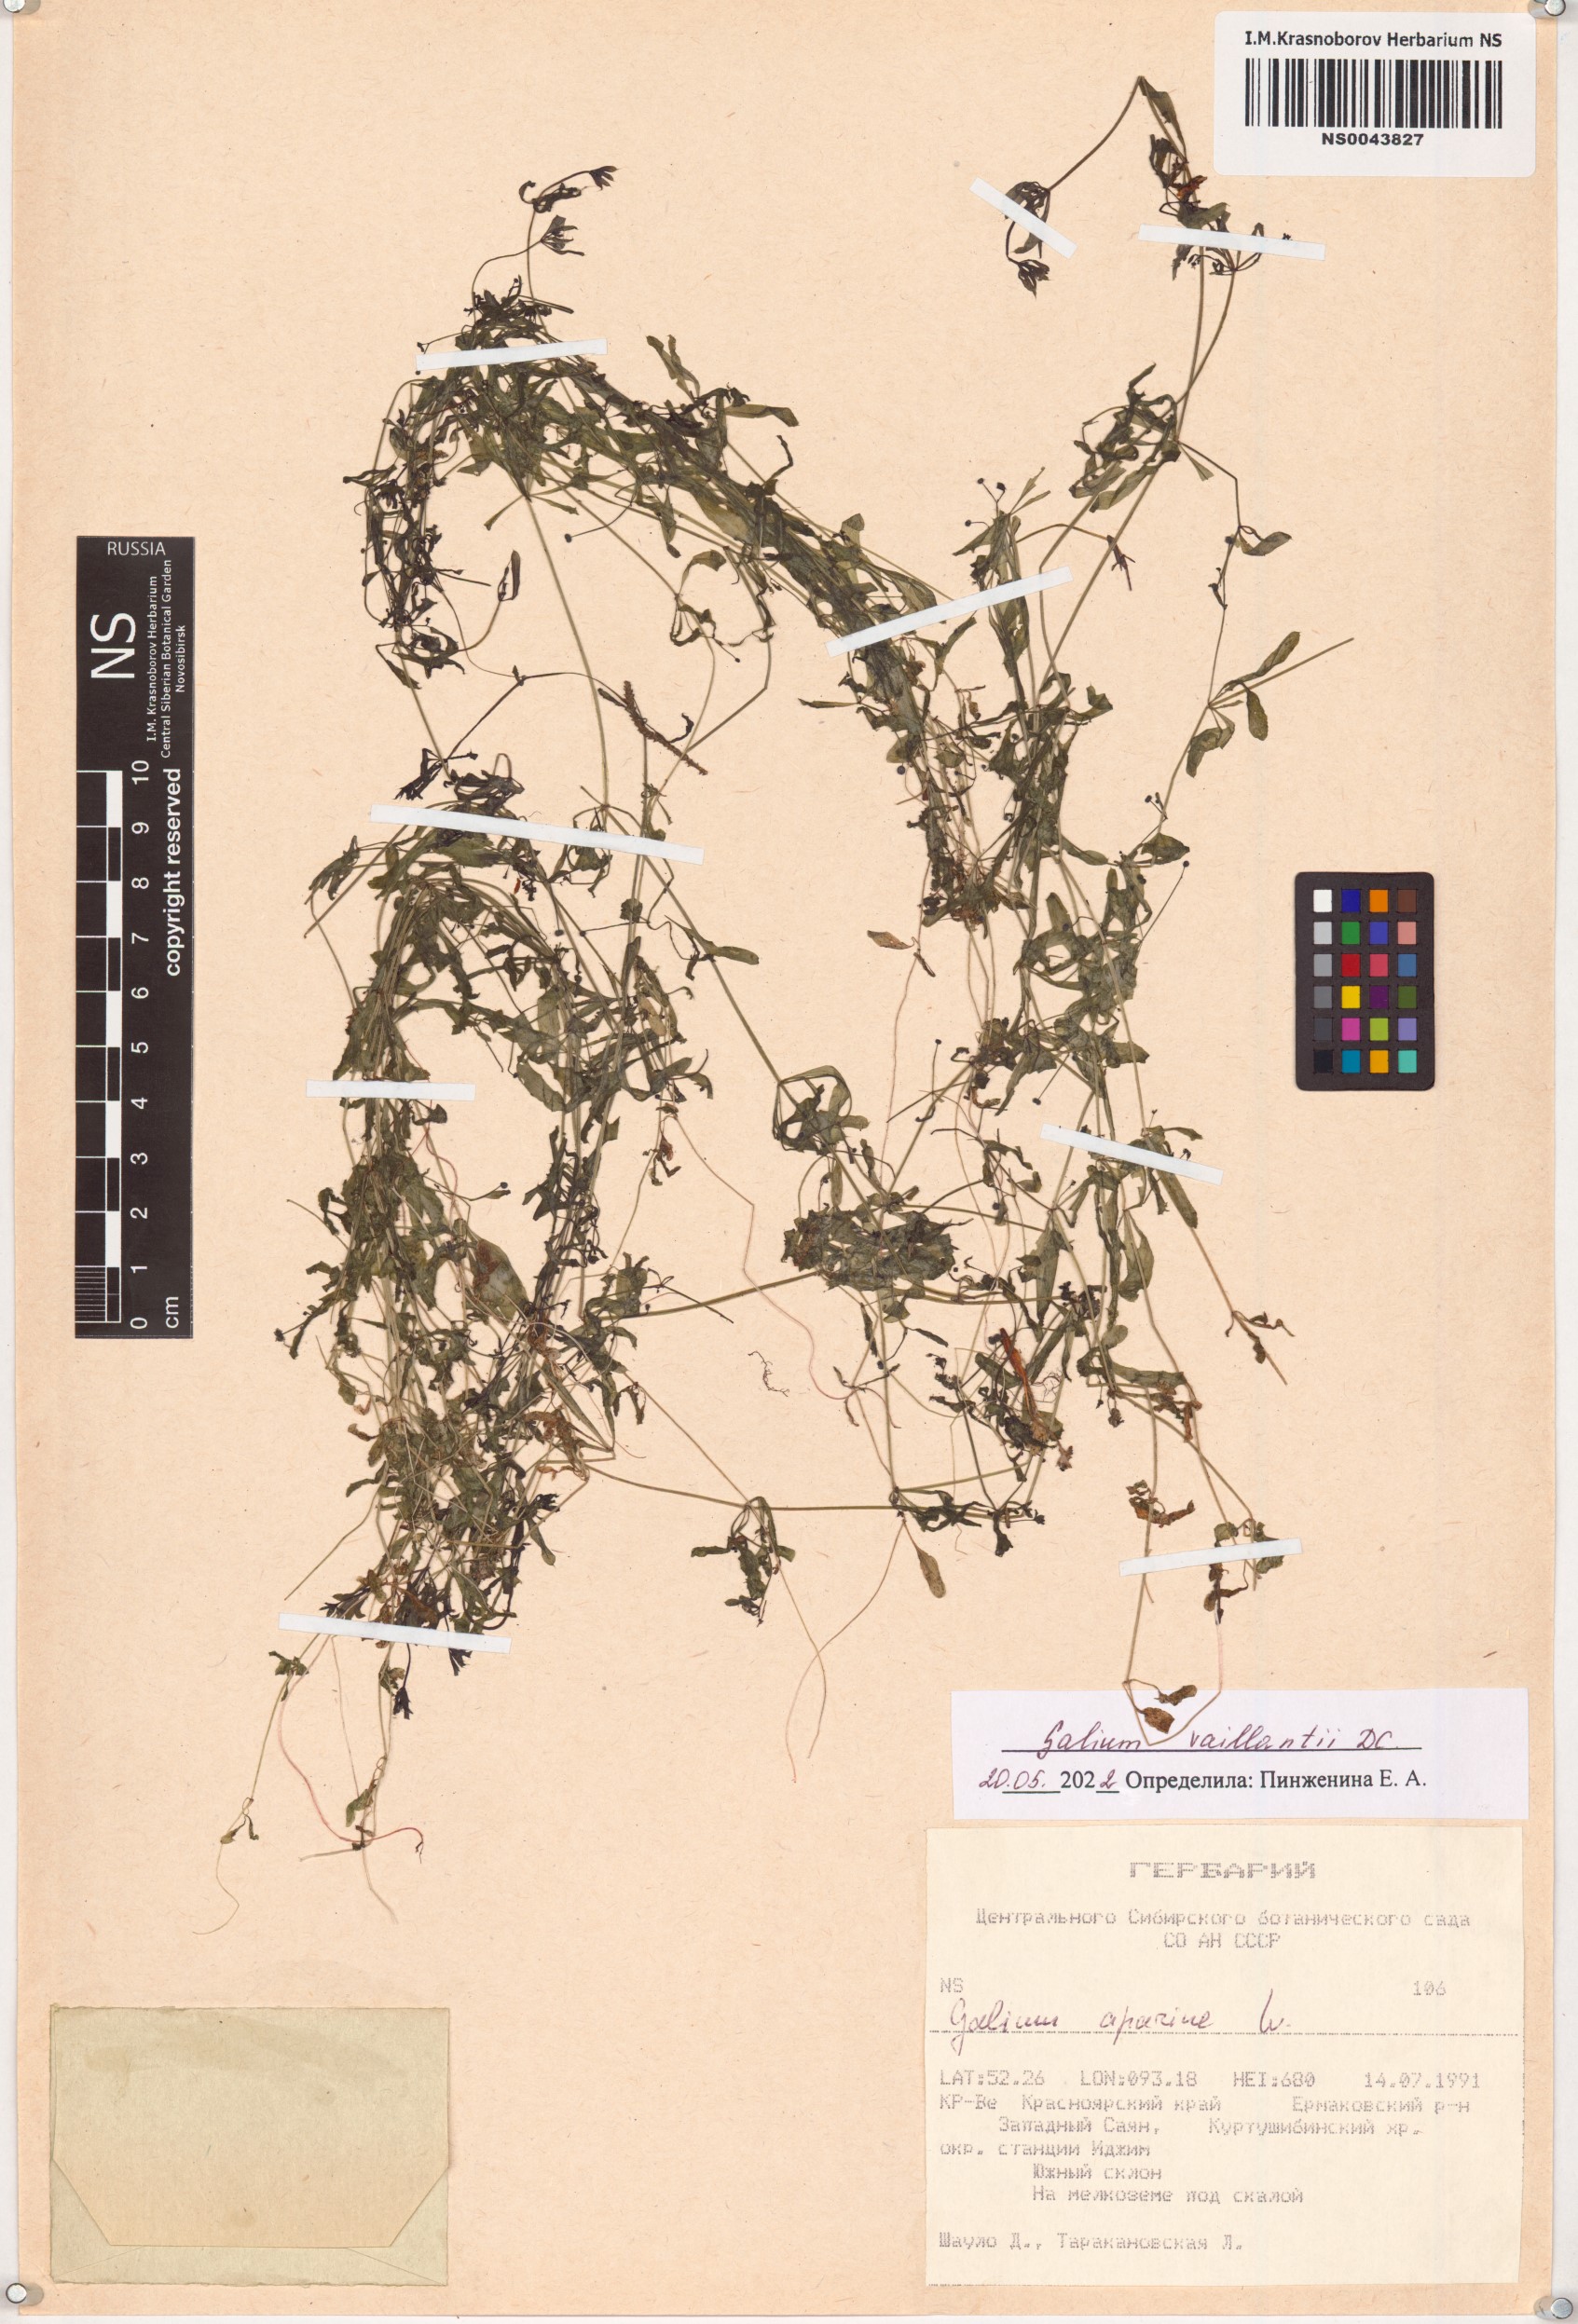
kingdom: Plantae
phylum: Tracheophyta
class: Magnoliopsida
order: Gentianales
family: Rubiaceae
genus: Galium
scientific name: Galium spurium
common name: False cleavers
